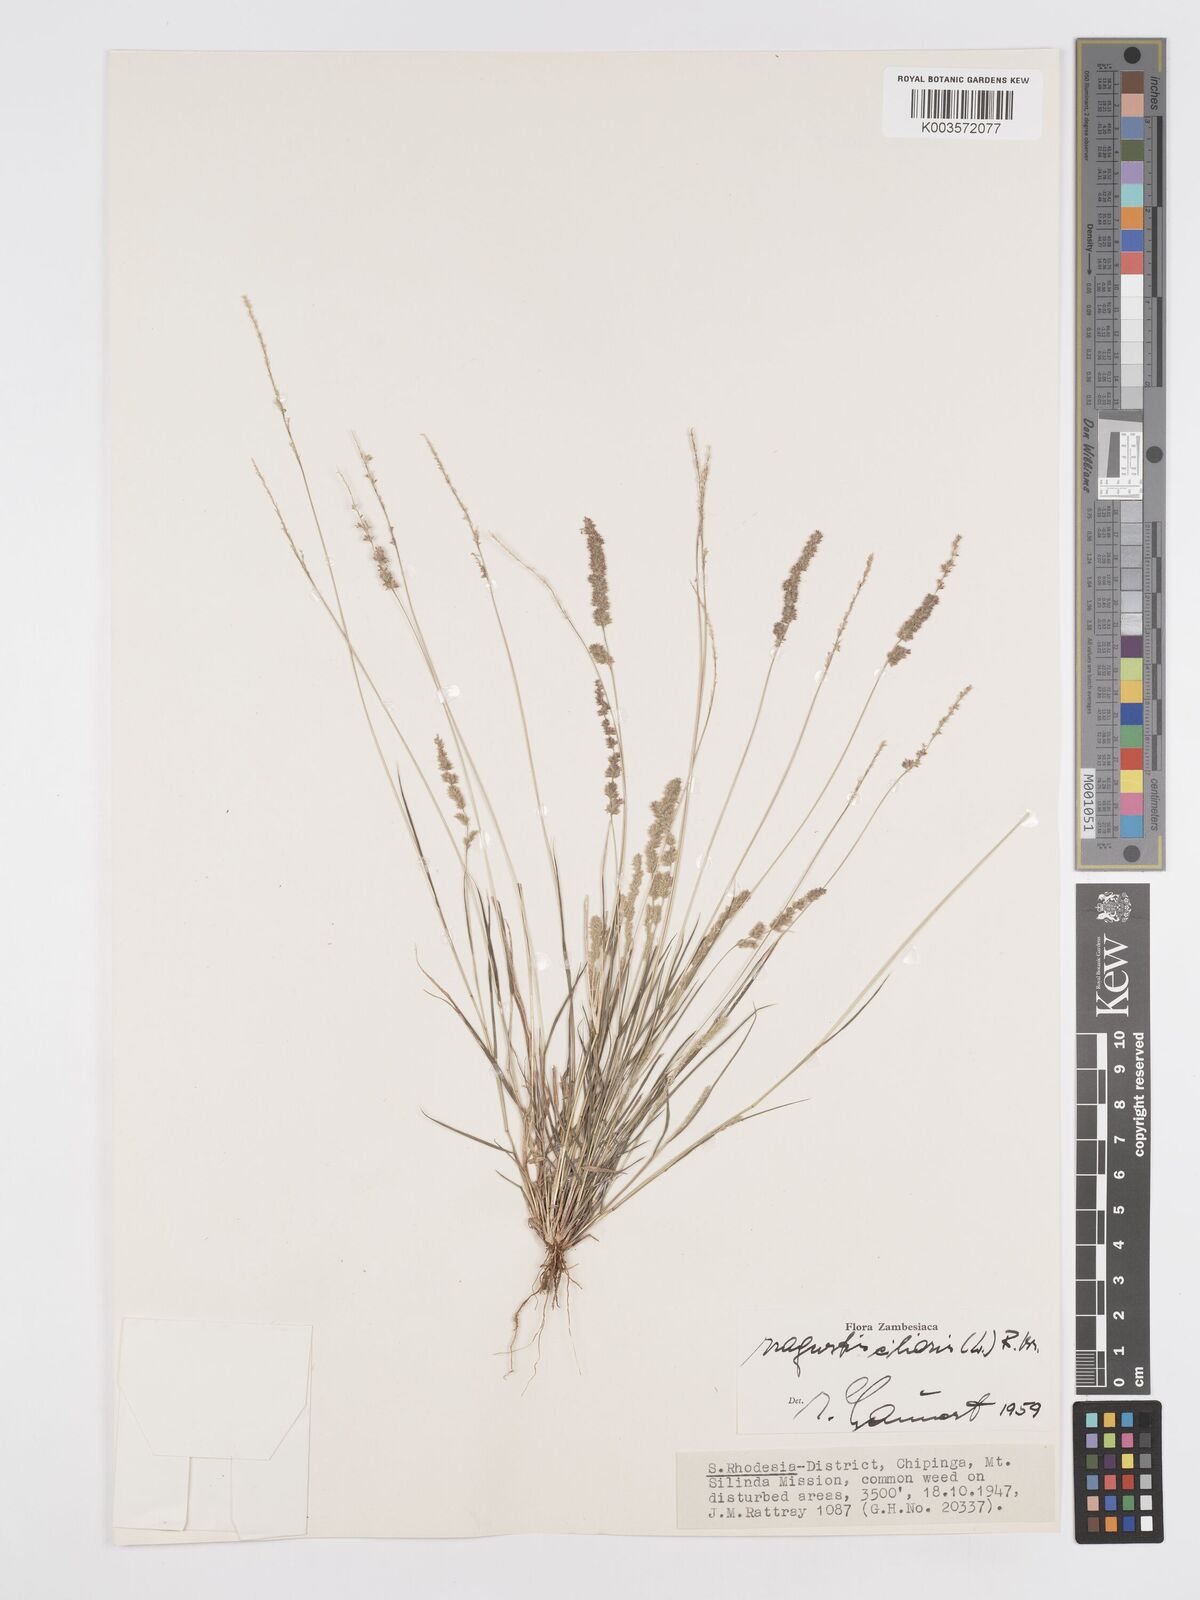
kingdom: Plantae
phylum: Tracheophyta
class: Liliopsida
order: Poales
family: Poaceae
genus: Eragrostis
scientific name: Eragrostis ciliaris
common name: Gophertail lovegrass
